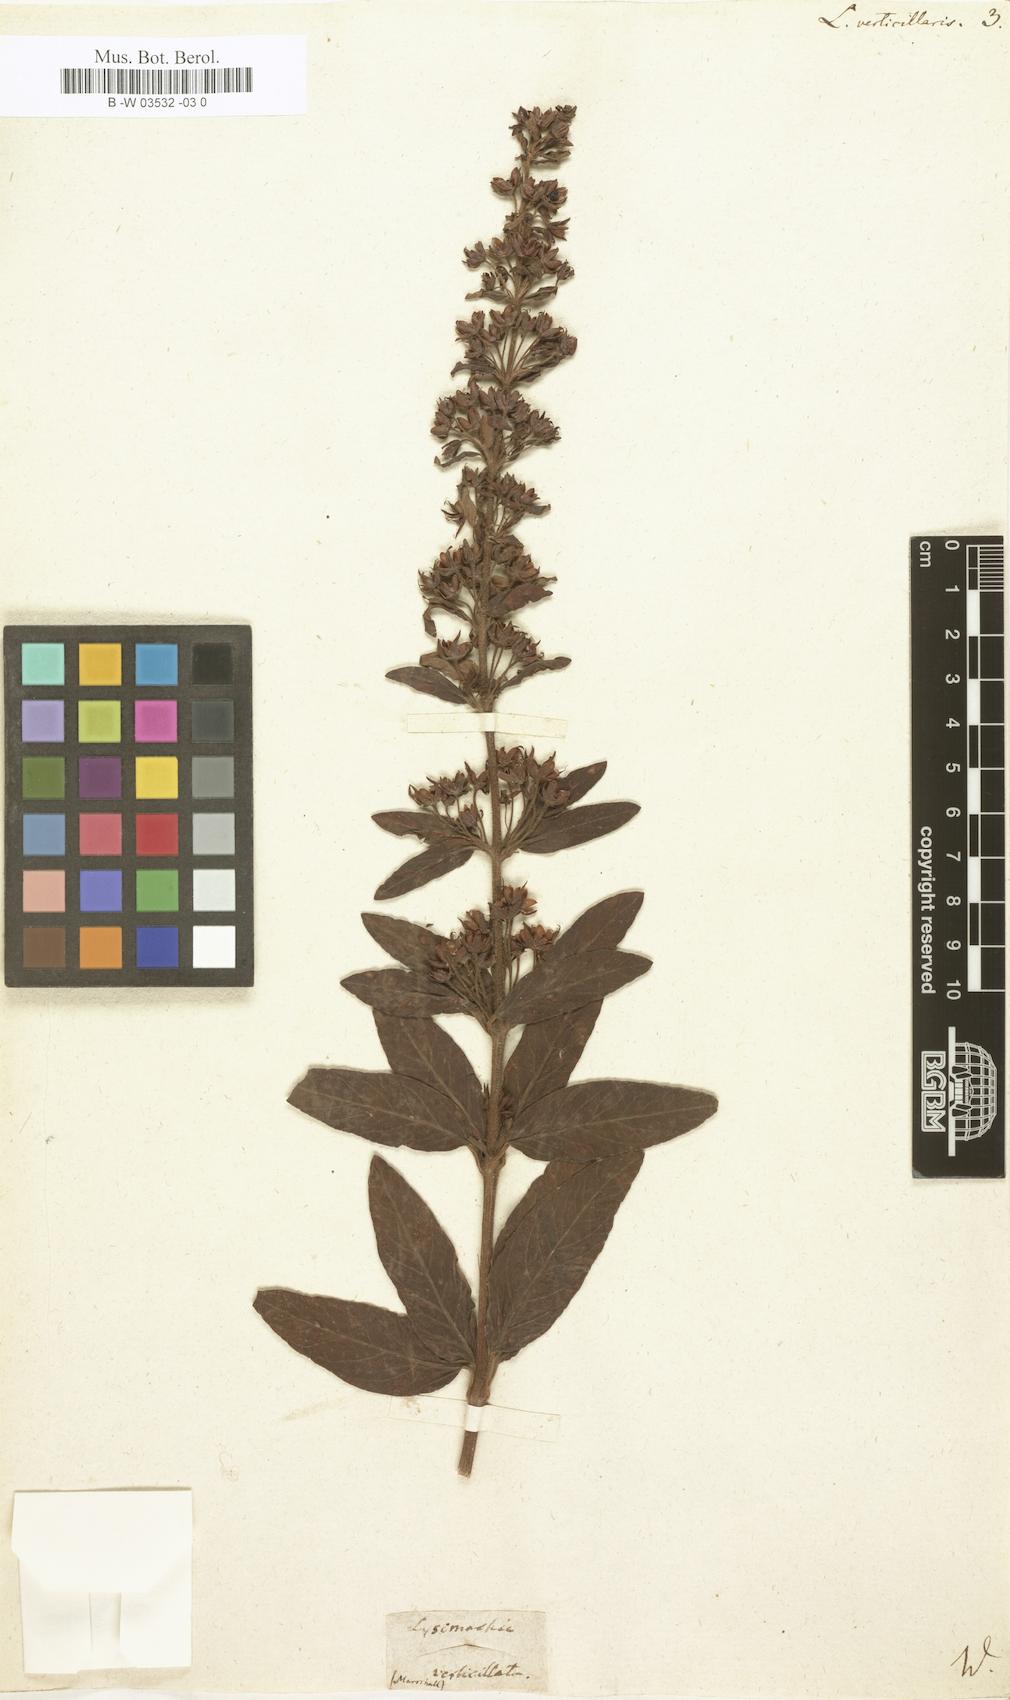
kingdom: Plantae
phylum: Tracheophyta
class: Magnoliopsida
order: Ericales
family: Primulaceae
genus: Lysimachia
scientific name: Lysimachia verticillaris
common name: Yellow loosestrife
